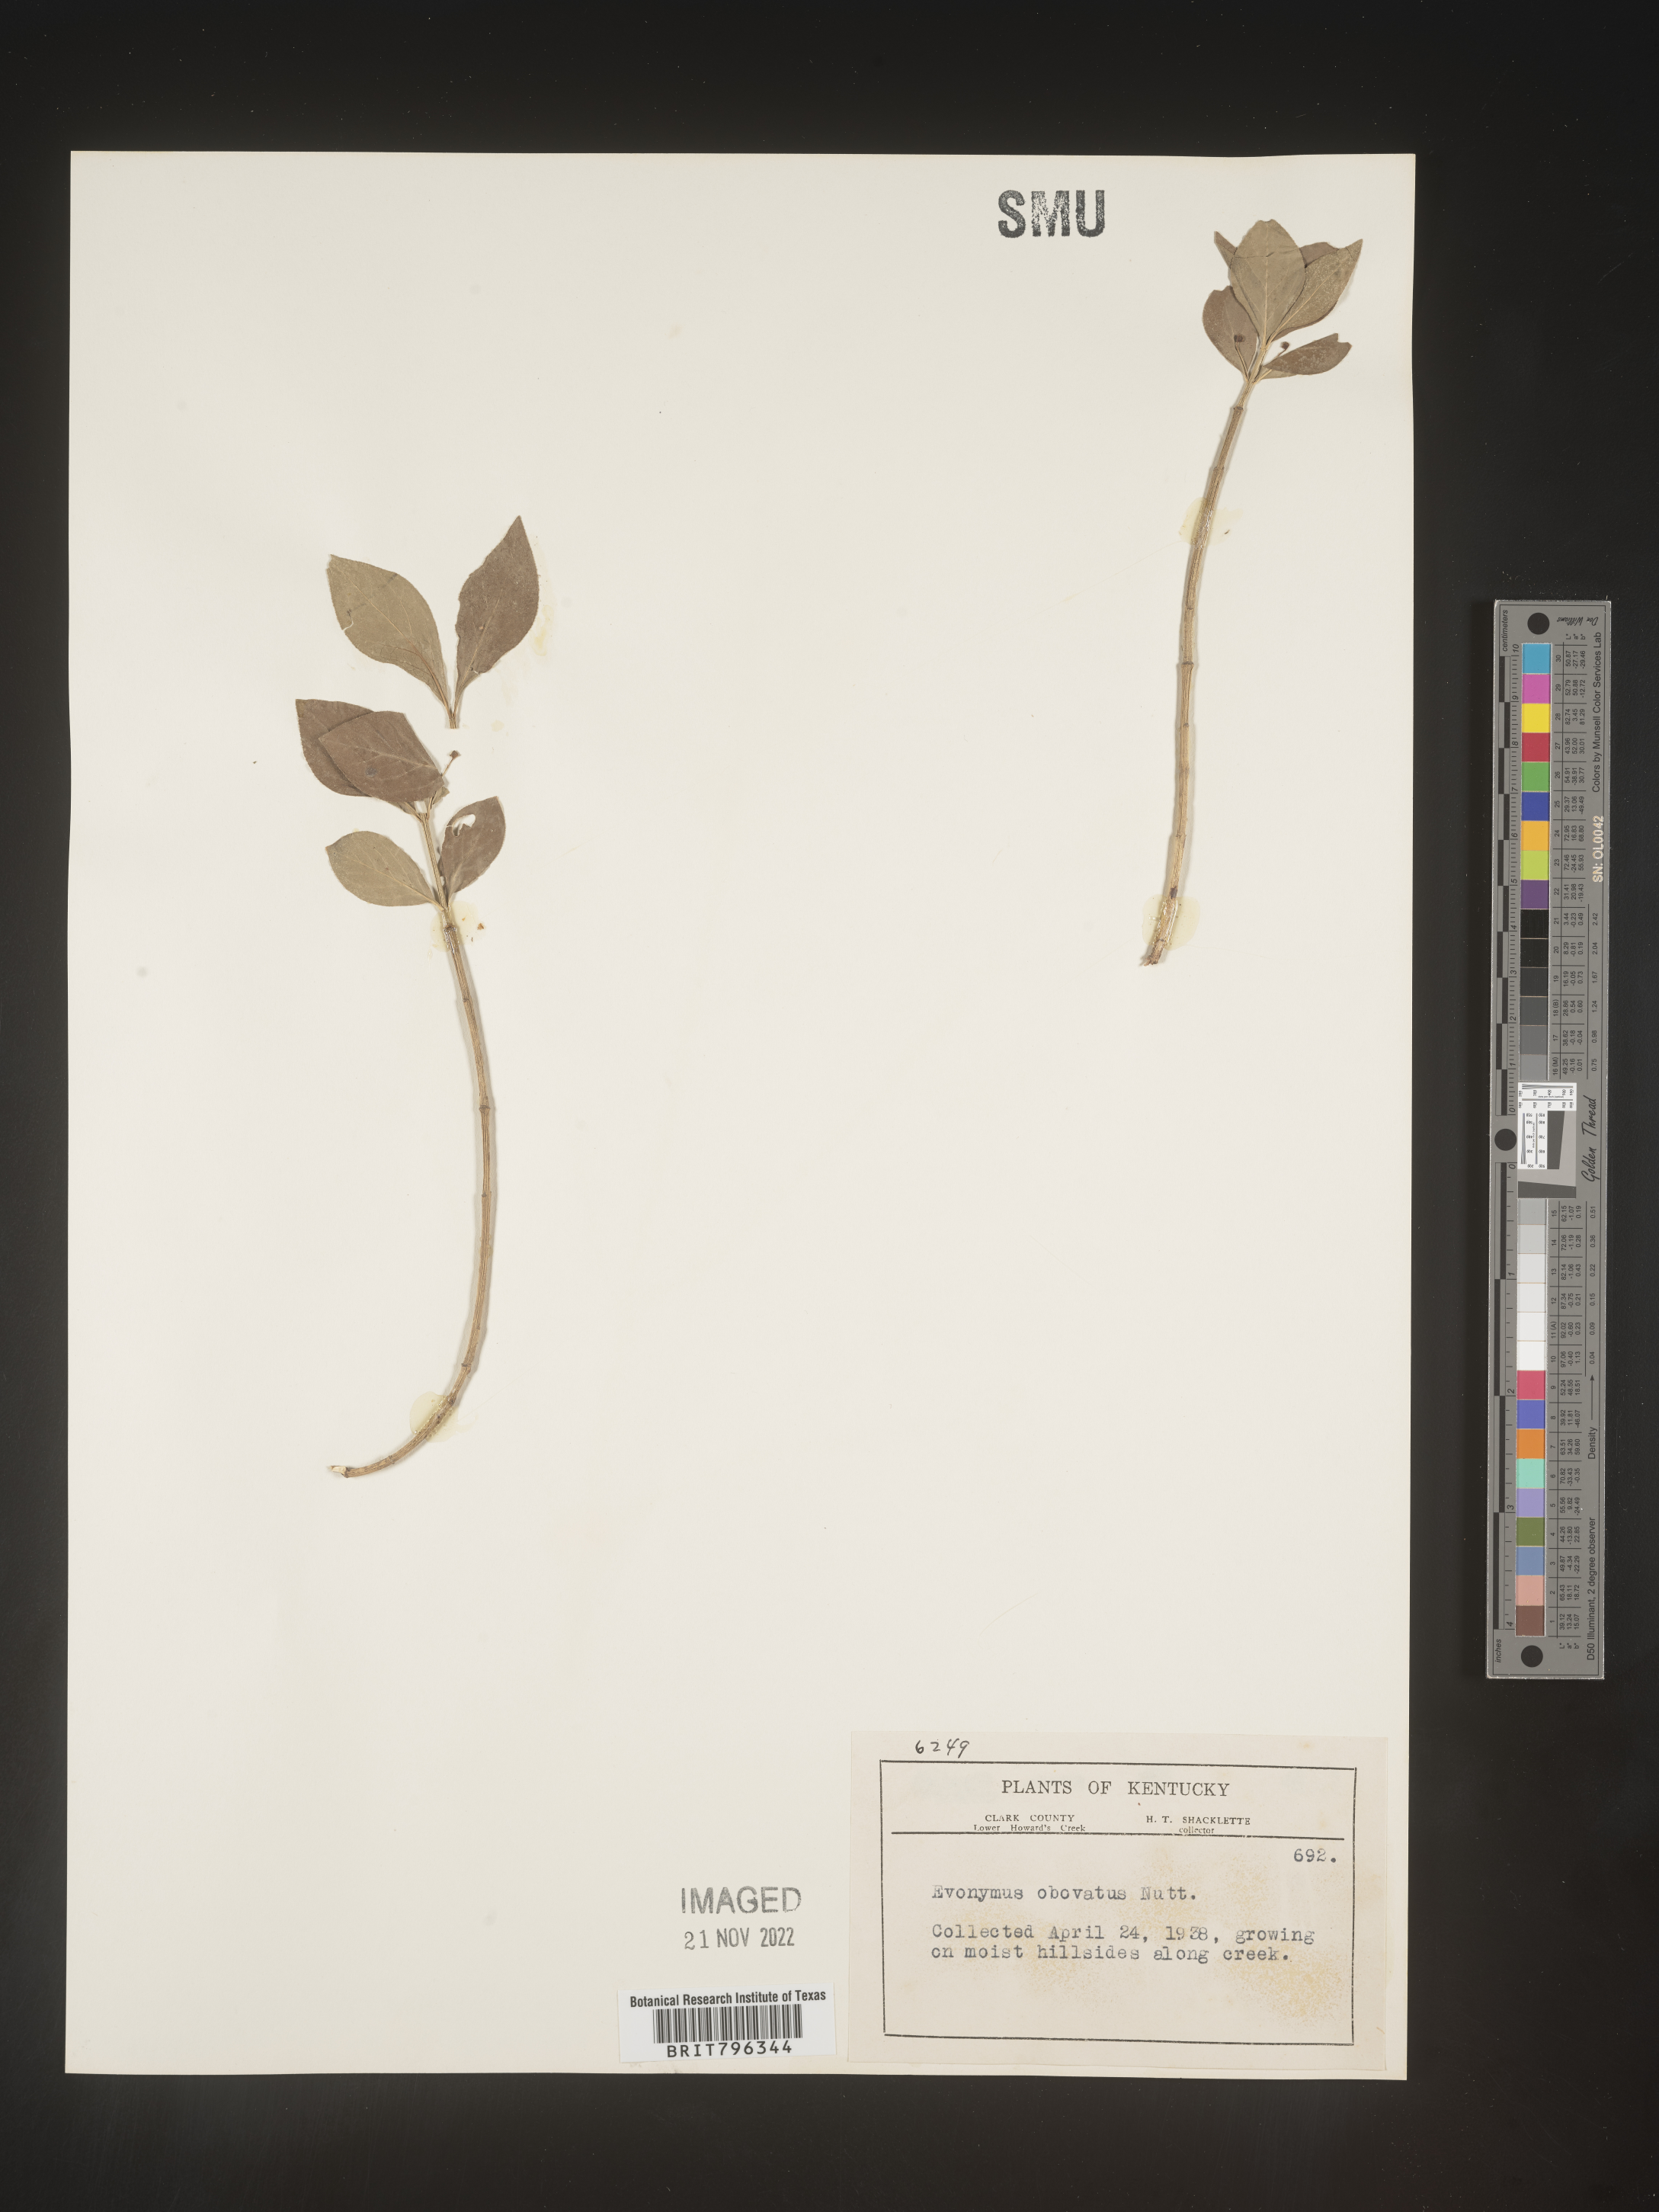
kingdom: Plantae
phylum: Tracheophyta
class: Magnoliopsida
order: Celastrales
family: Celastraceae
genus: Euonymus
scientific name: Euonymus obovatus
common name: Running strawberry-bush
